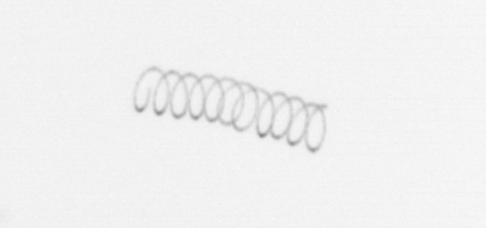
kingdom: Chromista
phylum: Ochrophyta
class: Bacillariophyceae
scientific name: Bacillariophyceae
